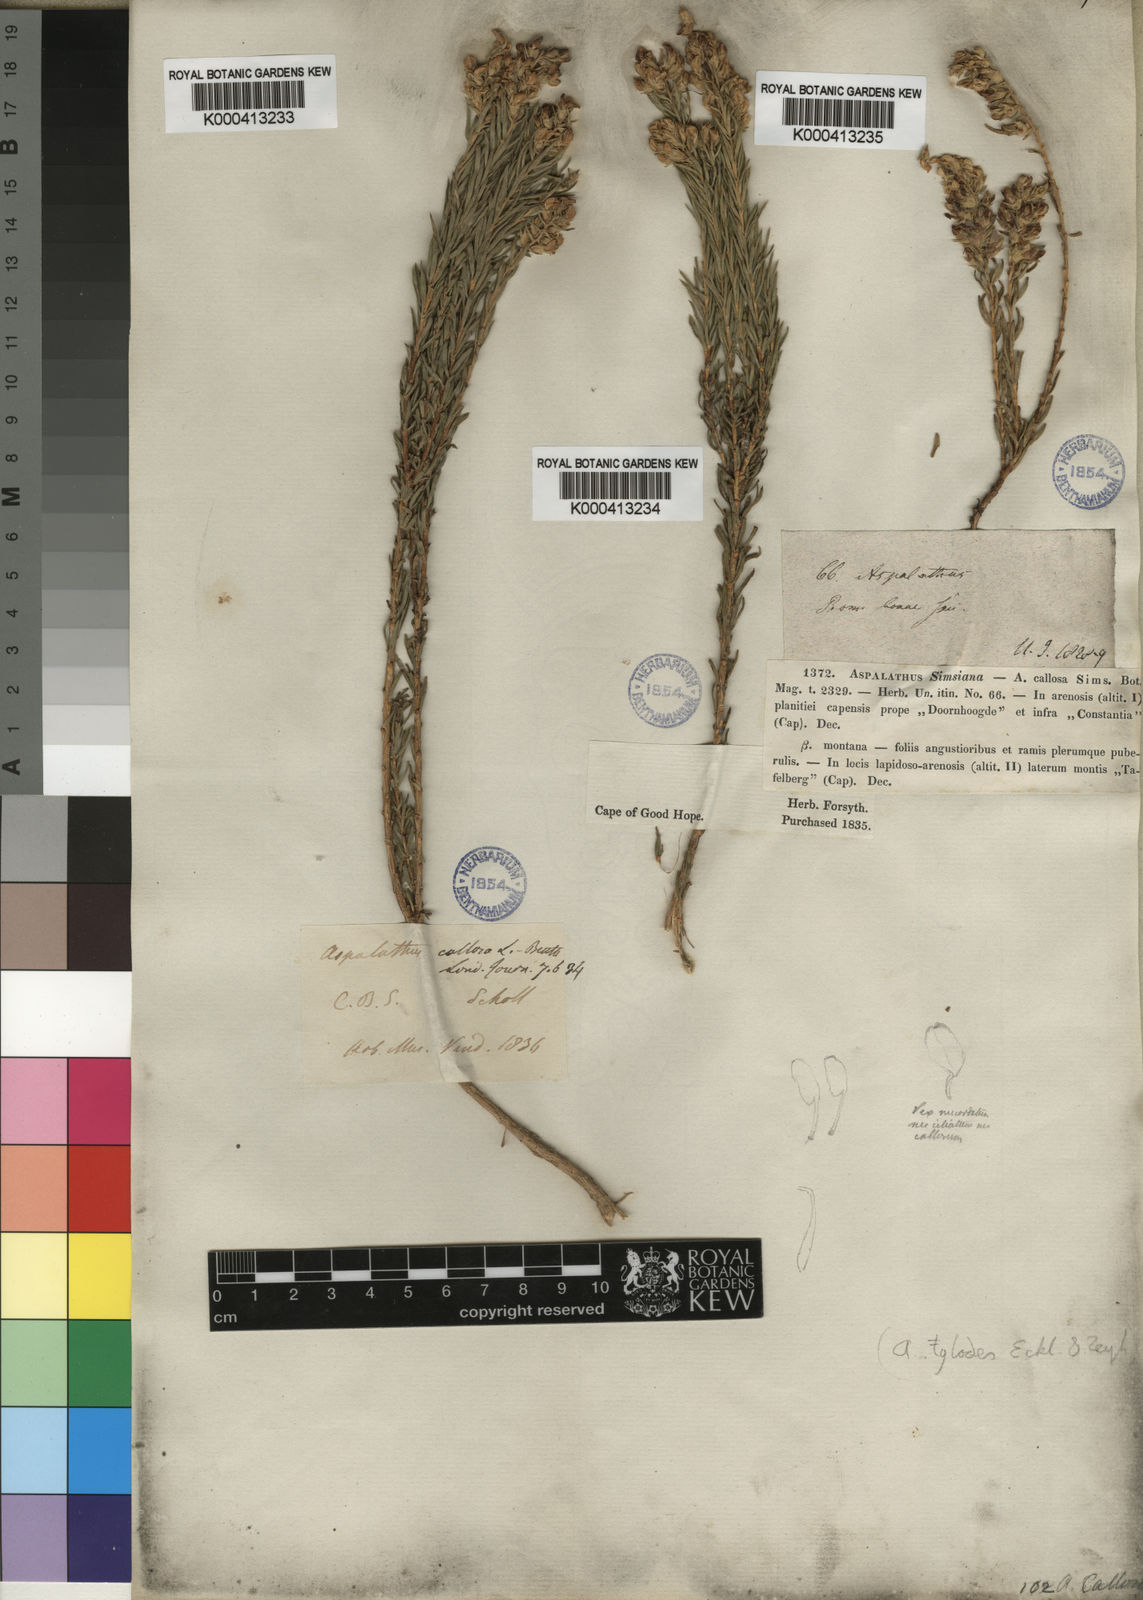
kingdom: Plantae
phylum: Tracheophyta
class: Magnoliopsida
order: Fabales
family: Fabaceae
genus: Aspalathus
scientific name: Aspalathus tylodes
